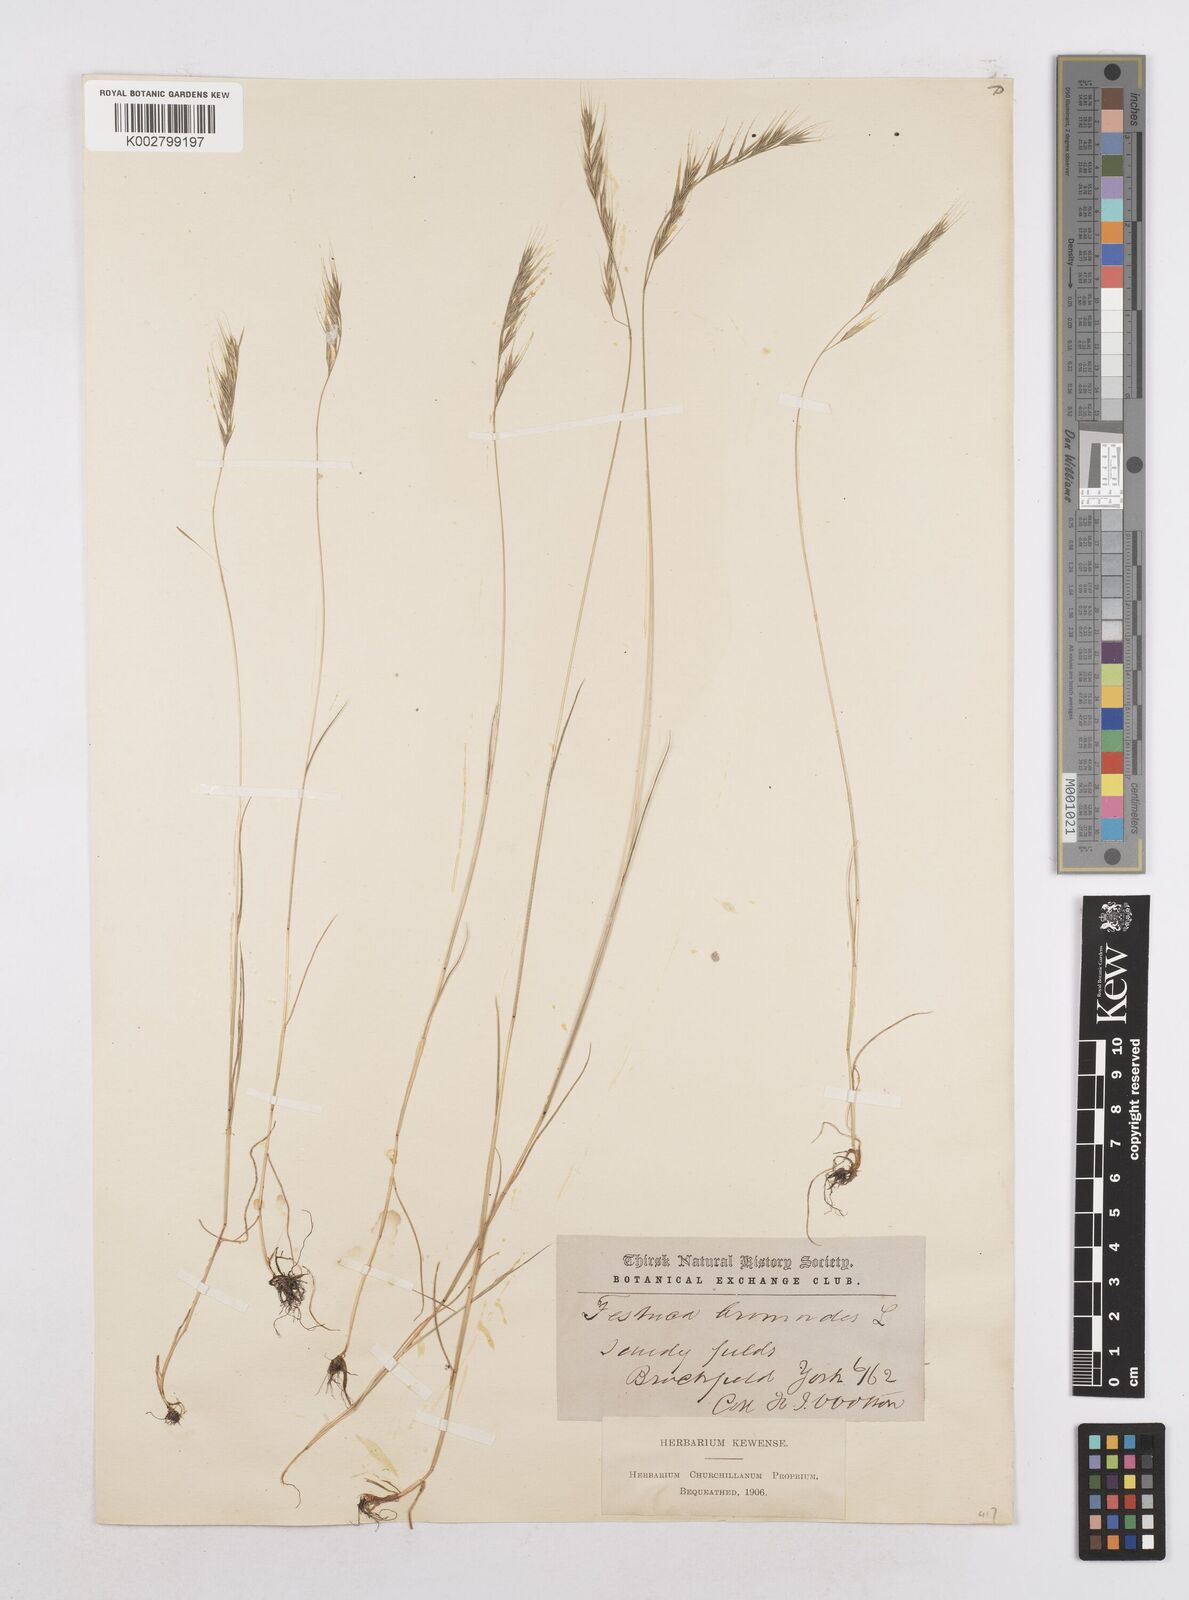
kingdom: Plantae
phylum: Tracheophyta
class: Liliopsida
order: Poales
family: Poaceae
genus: Festuca
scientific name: Festuca bromoides
